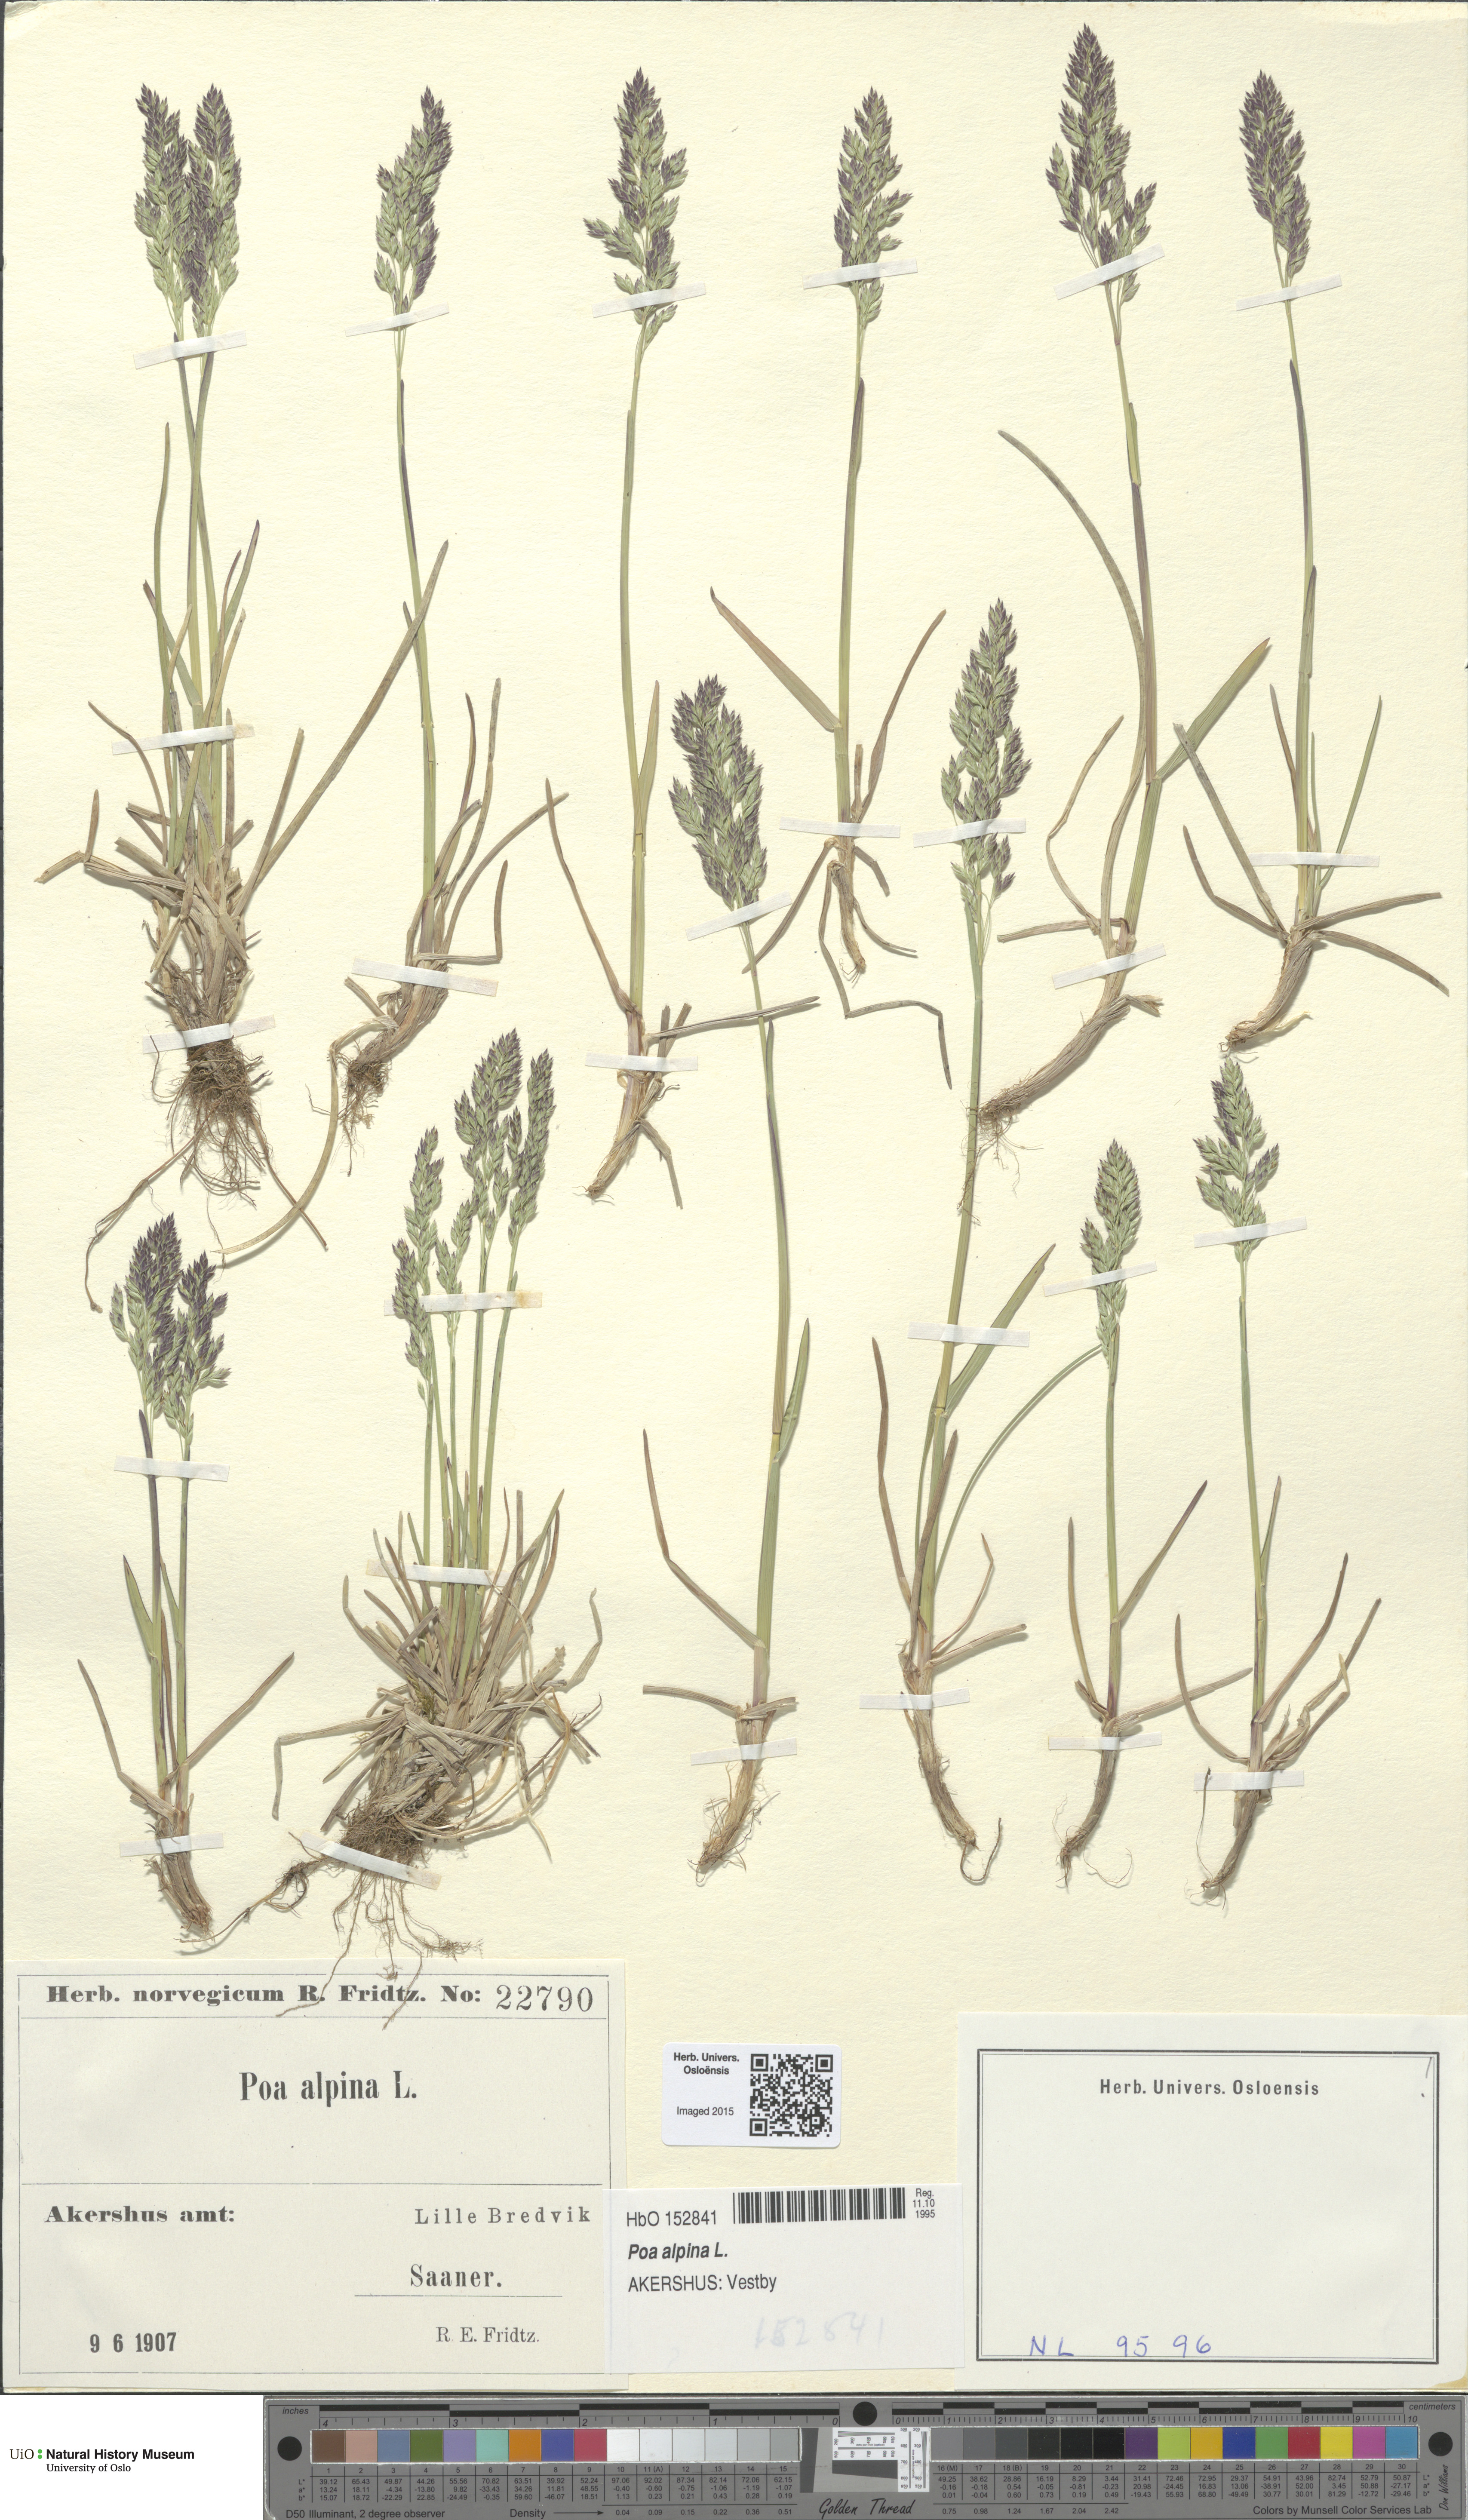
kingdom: Plantae
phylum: Tracheophyta
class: Liliopsida
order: Poales
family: Poaceae
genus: Poa
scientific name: Poa alpina
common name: Alpine bluegrass
